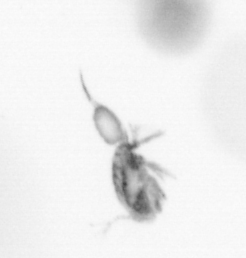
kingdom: Animalia
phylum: Arthropoda
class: Copepoda
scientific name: Copepoda
